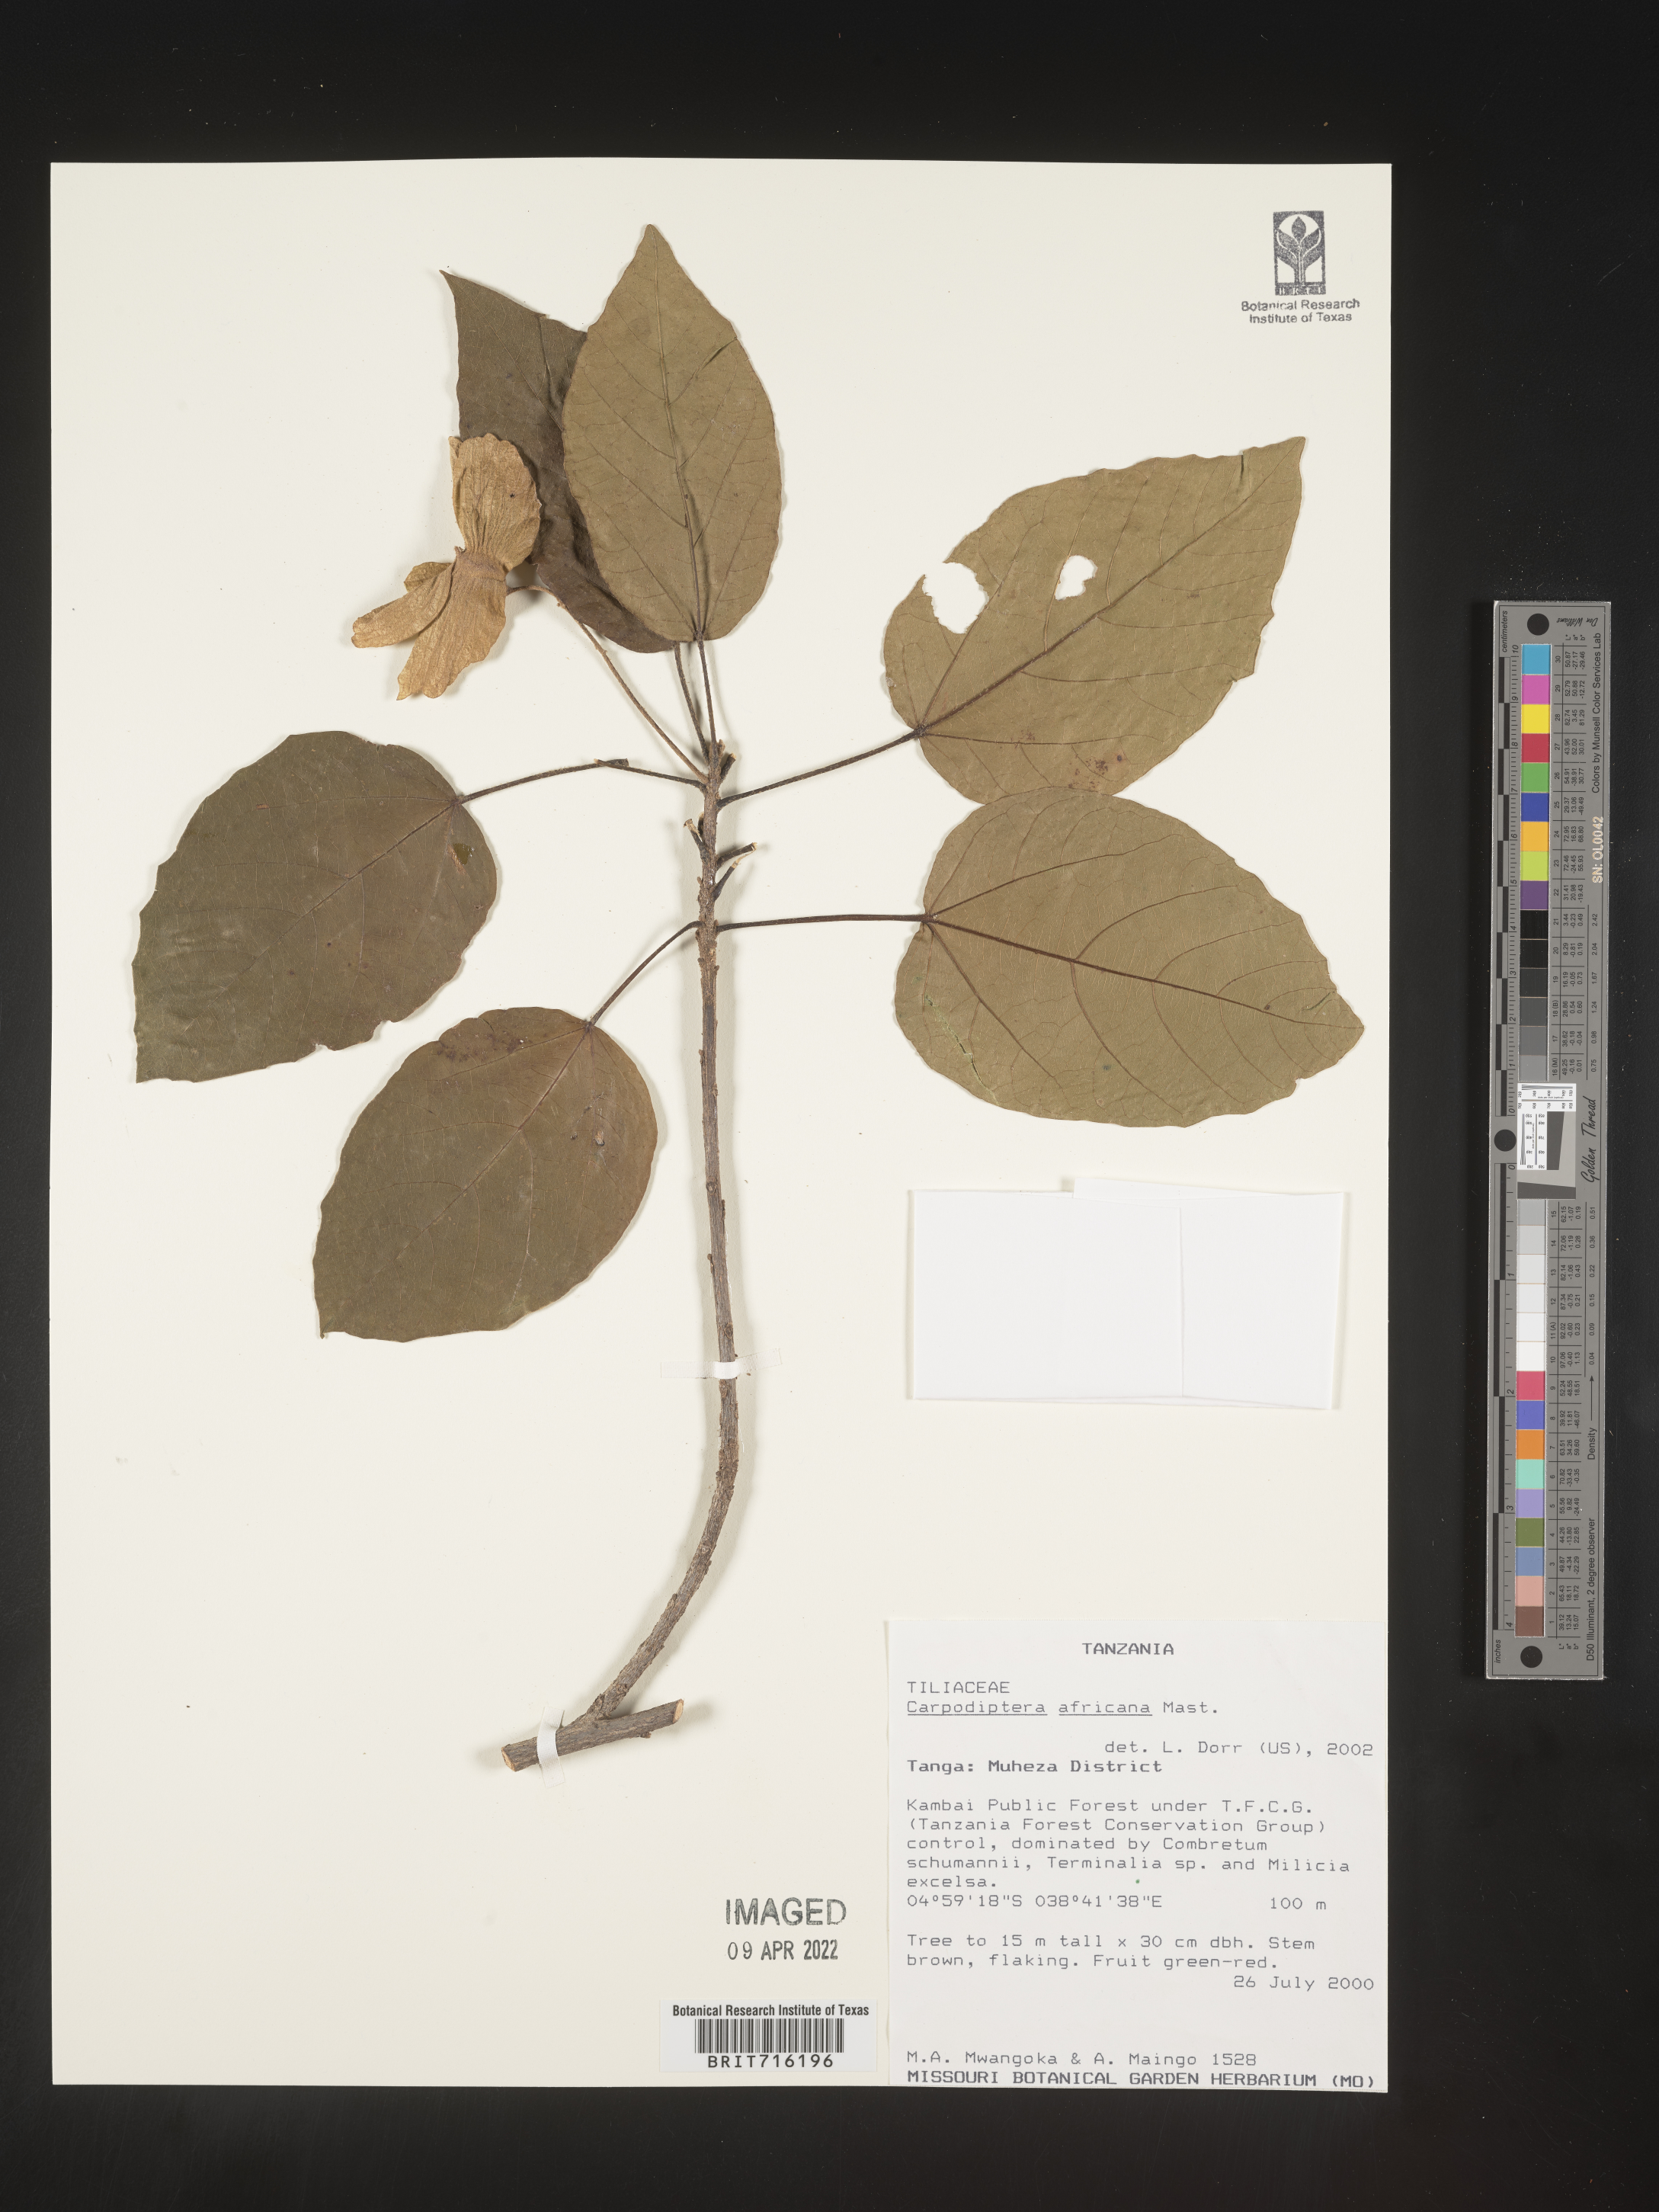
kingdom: Plantae
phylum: Tracheophyta
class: Magnoliopsida
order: Malvales
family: Malvaceae
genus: Berrya
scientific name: Berrya africana
